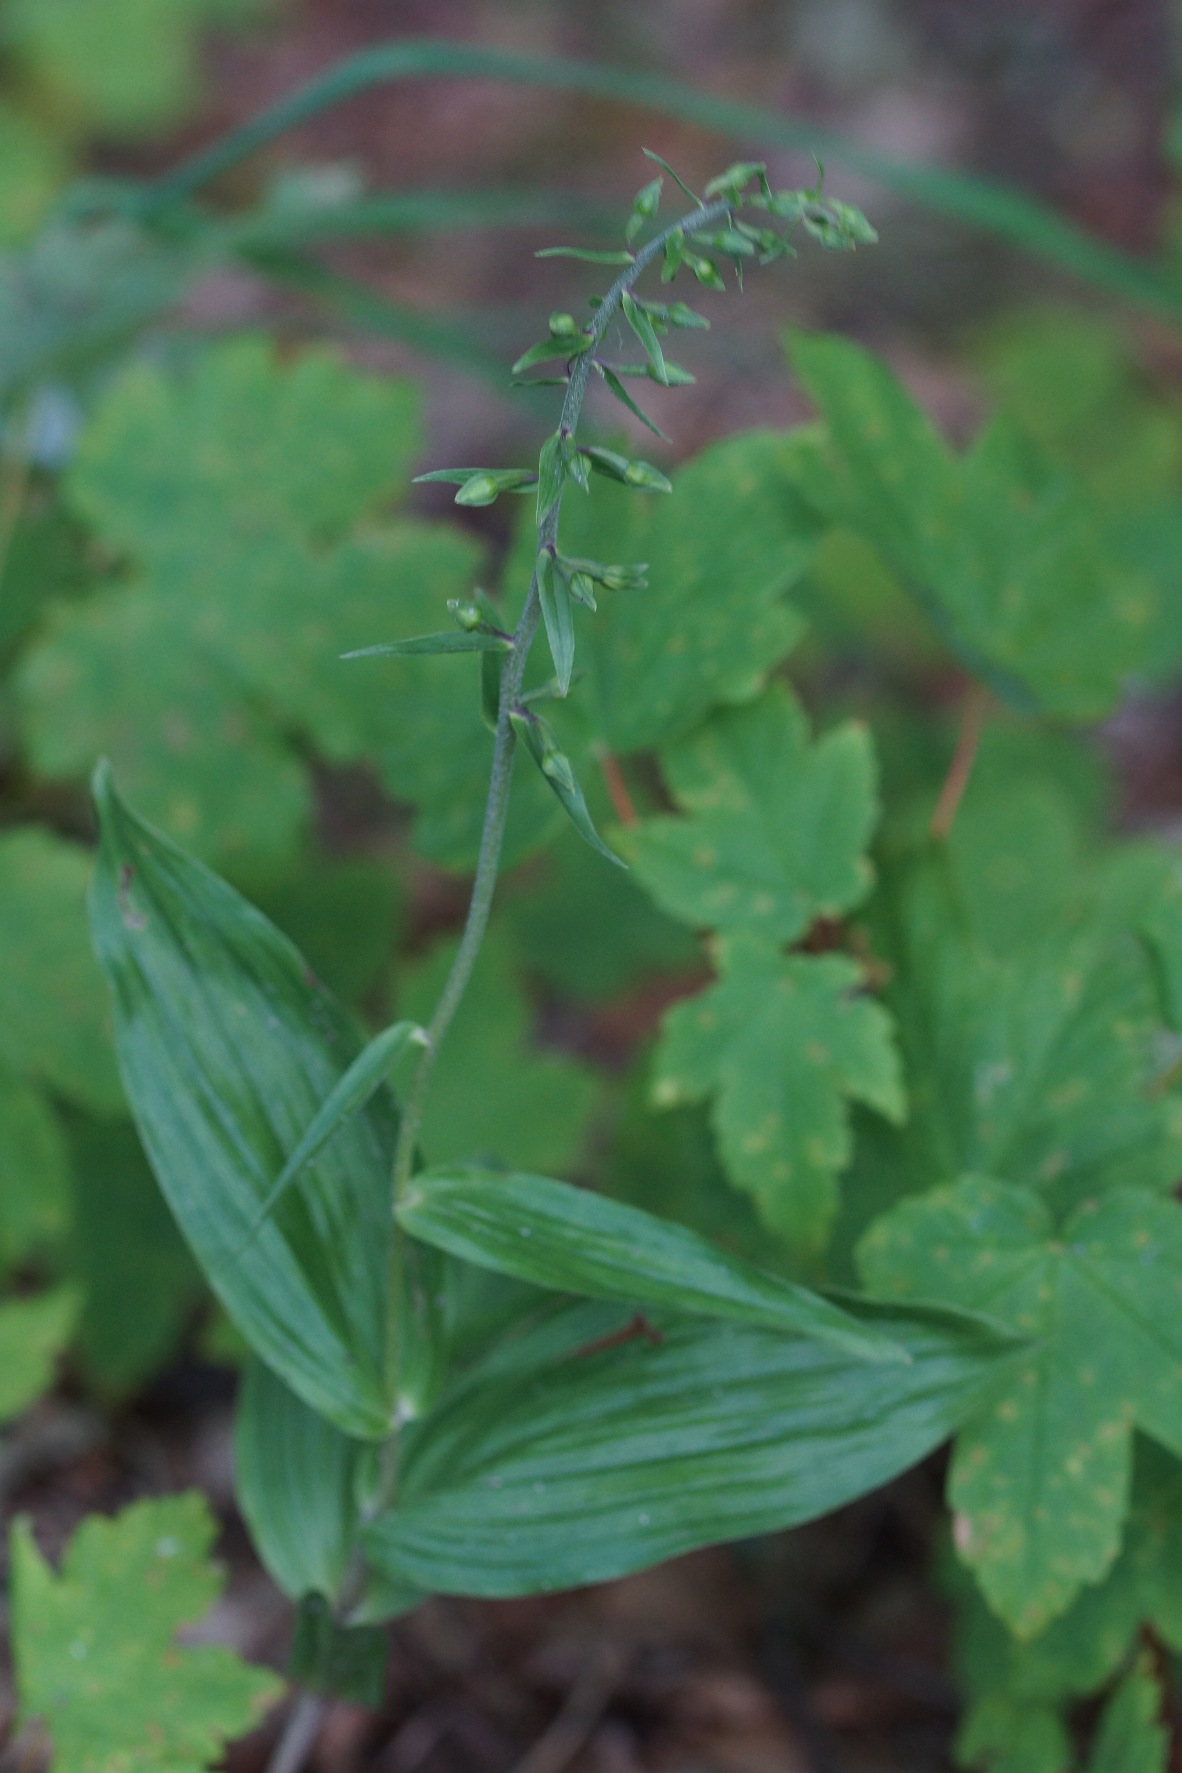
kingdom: Plantae
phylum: Tracheophyta
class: Liliopsida
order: Asparagales
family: Orchidaceae
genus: Epipactis
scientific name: Epipactis helleborine
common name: Skov-hullæbe
